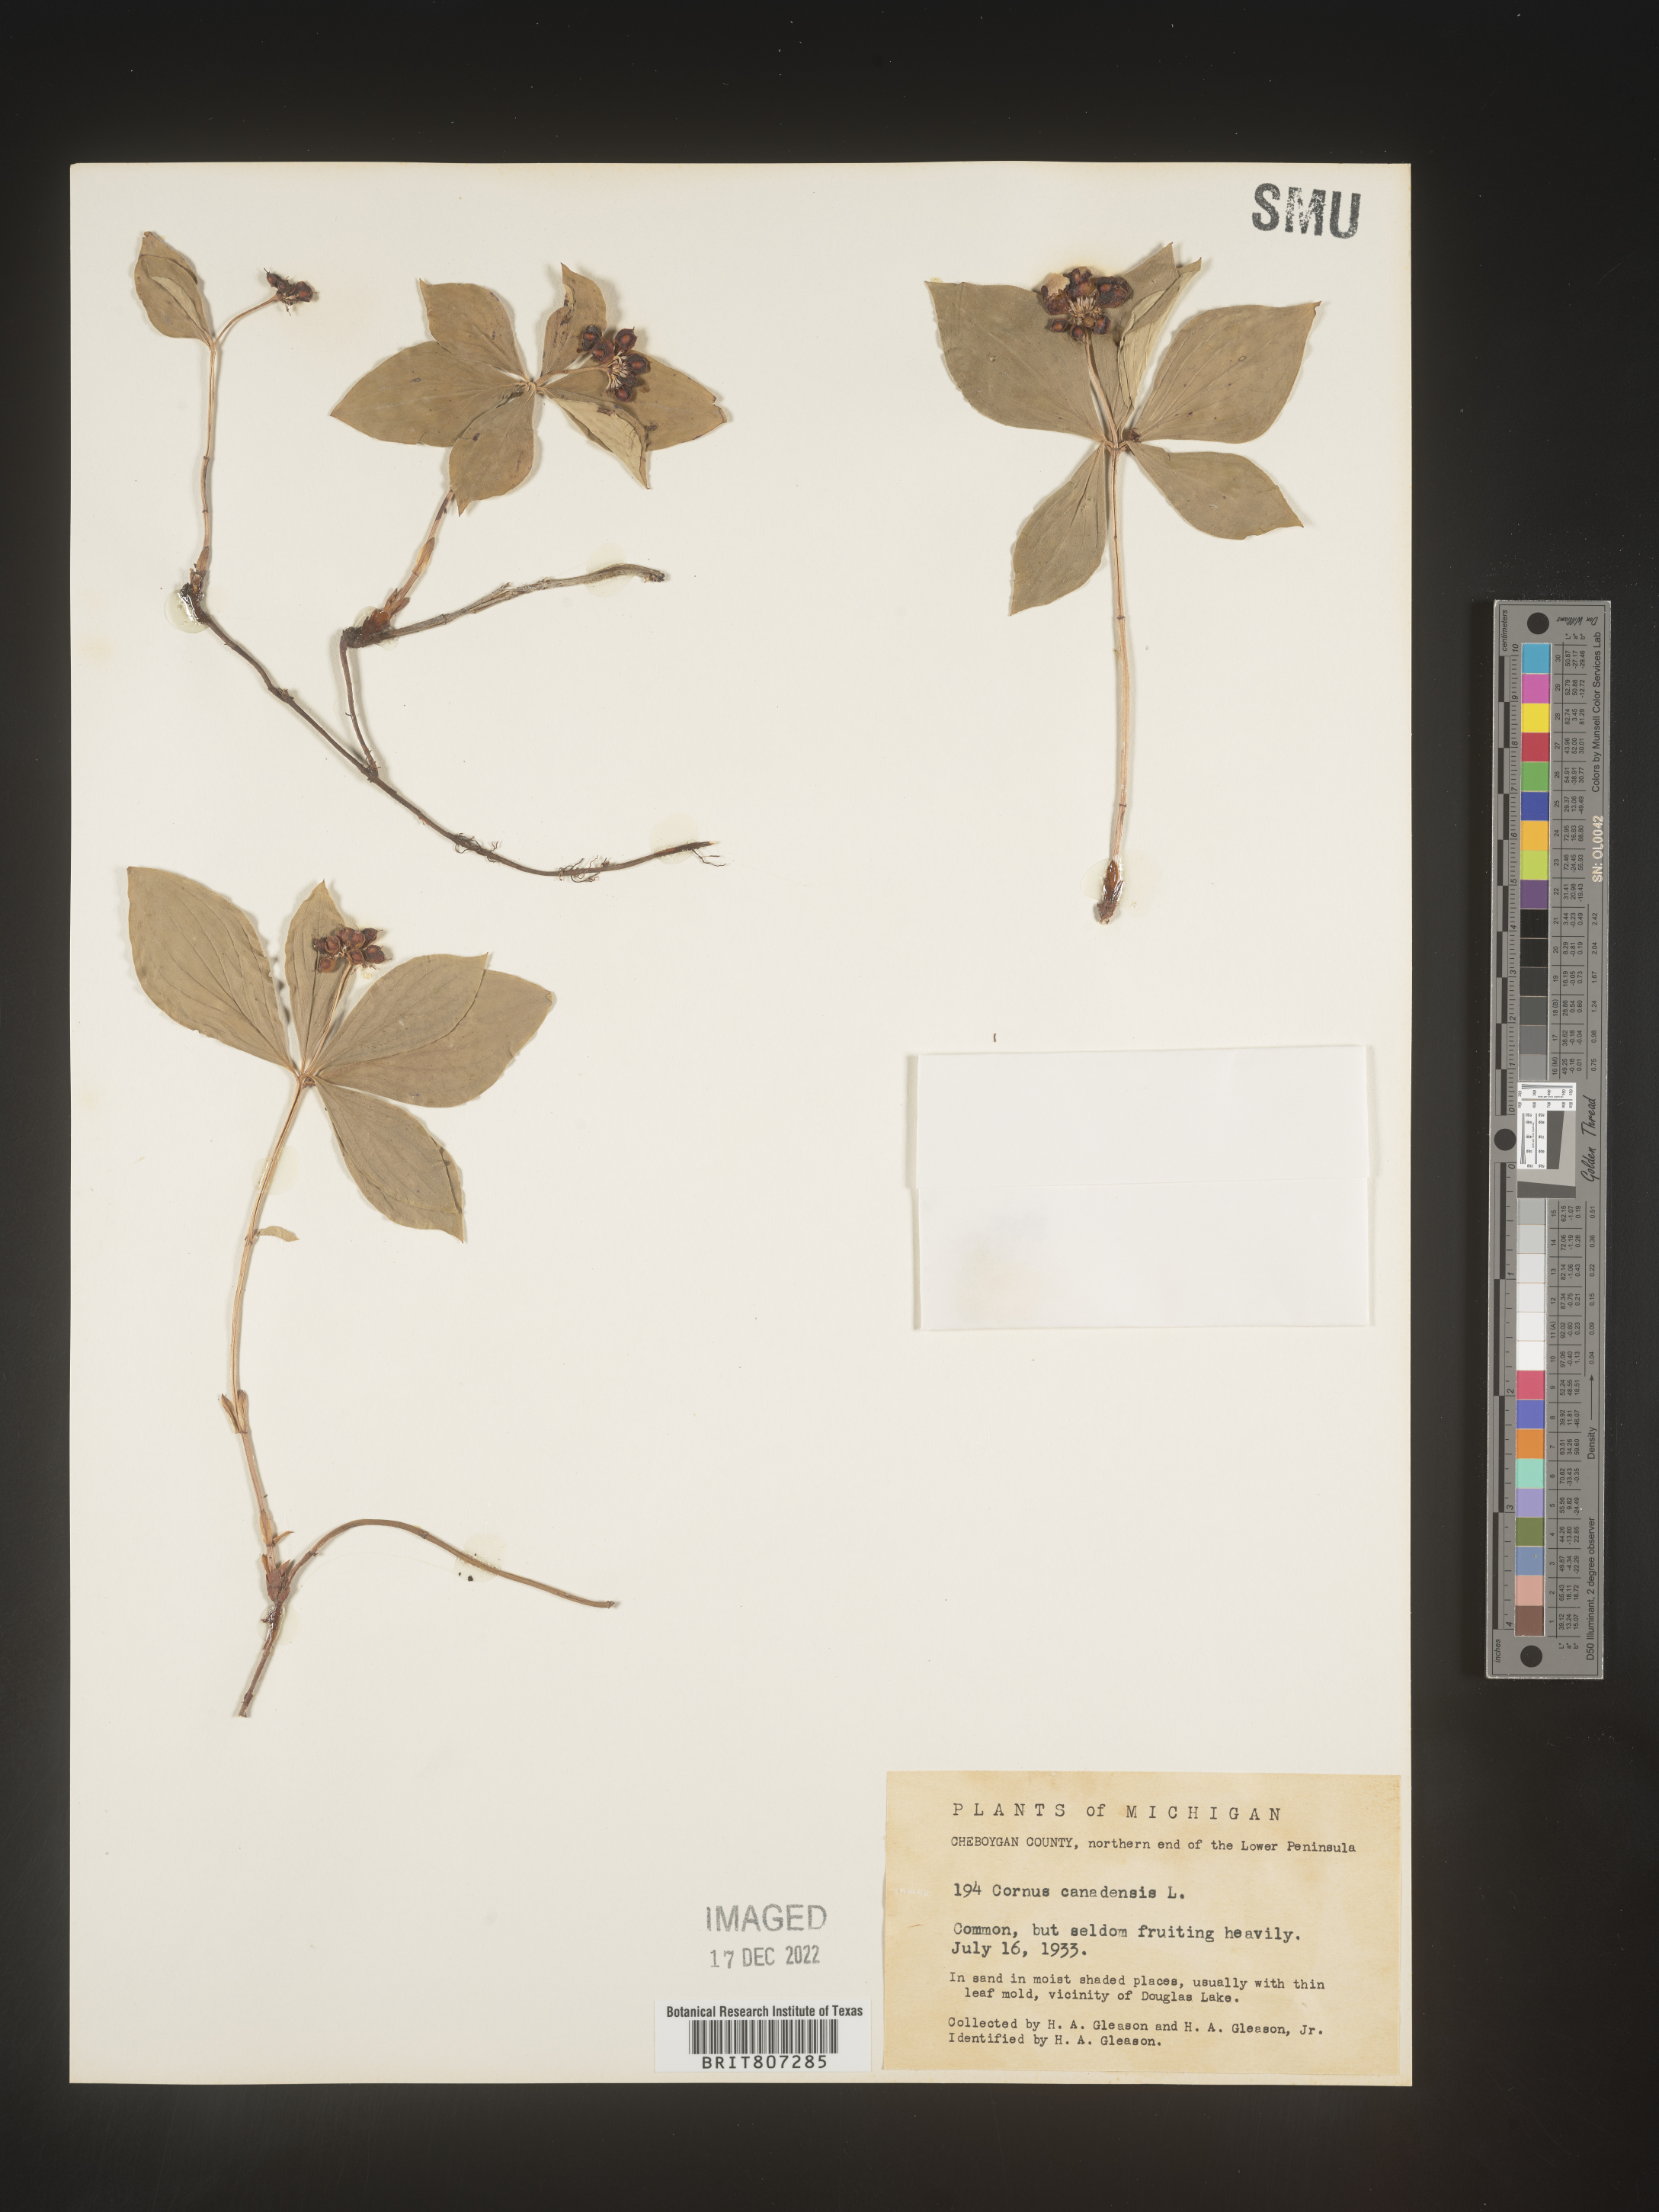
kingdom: Plantae
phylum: Tracheophyta
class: Magnoliopsida
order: Cornales
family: Cornaceae
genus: Cornus
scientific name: Cornus canadensis
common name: Creeping dogwood
